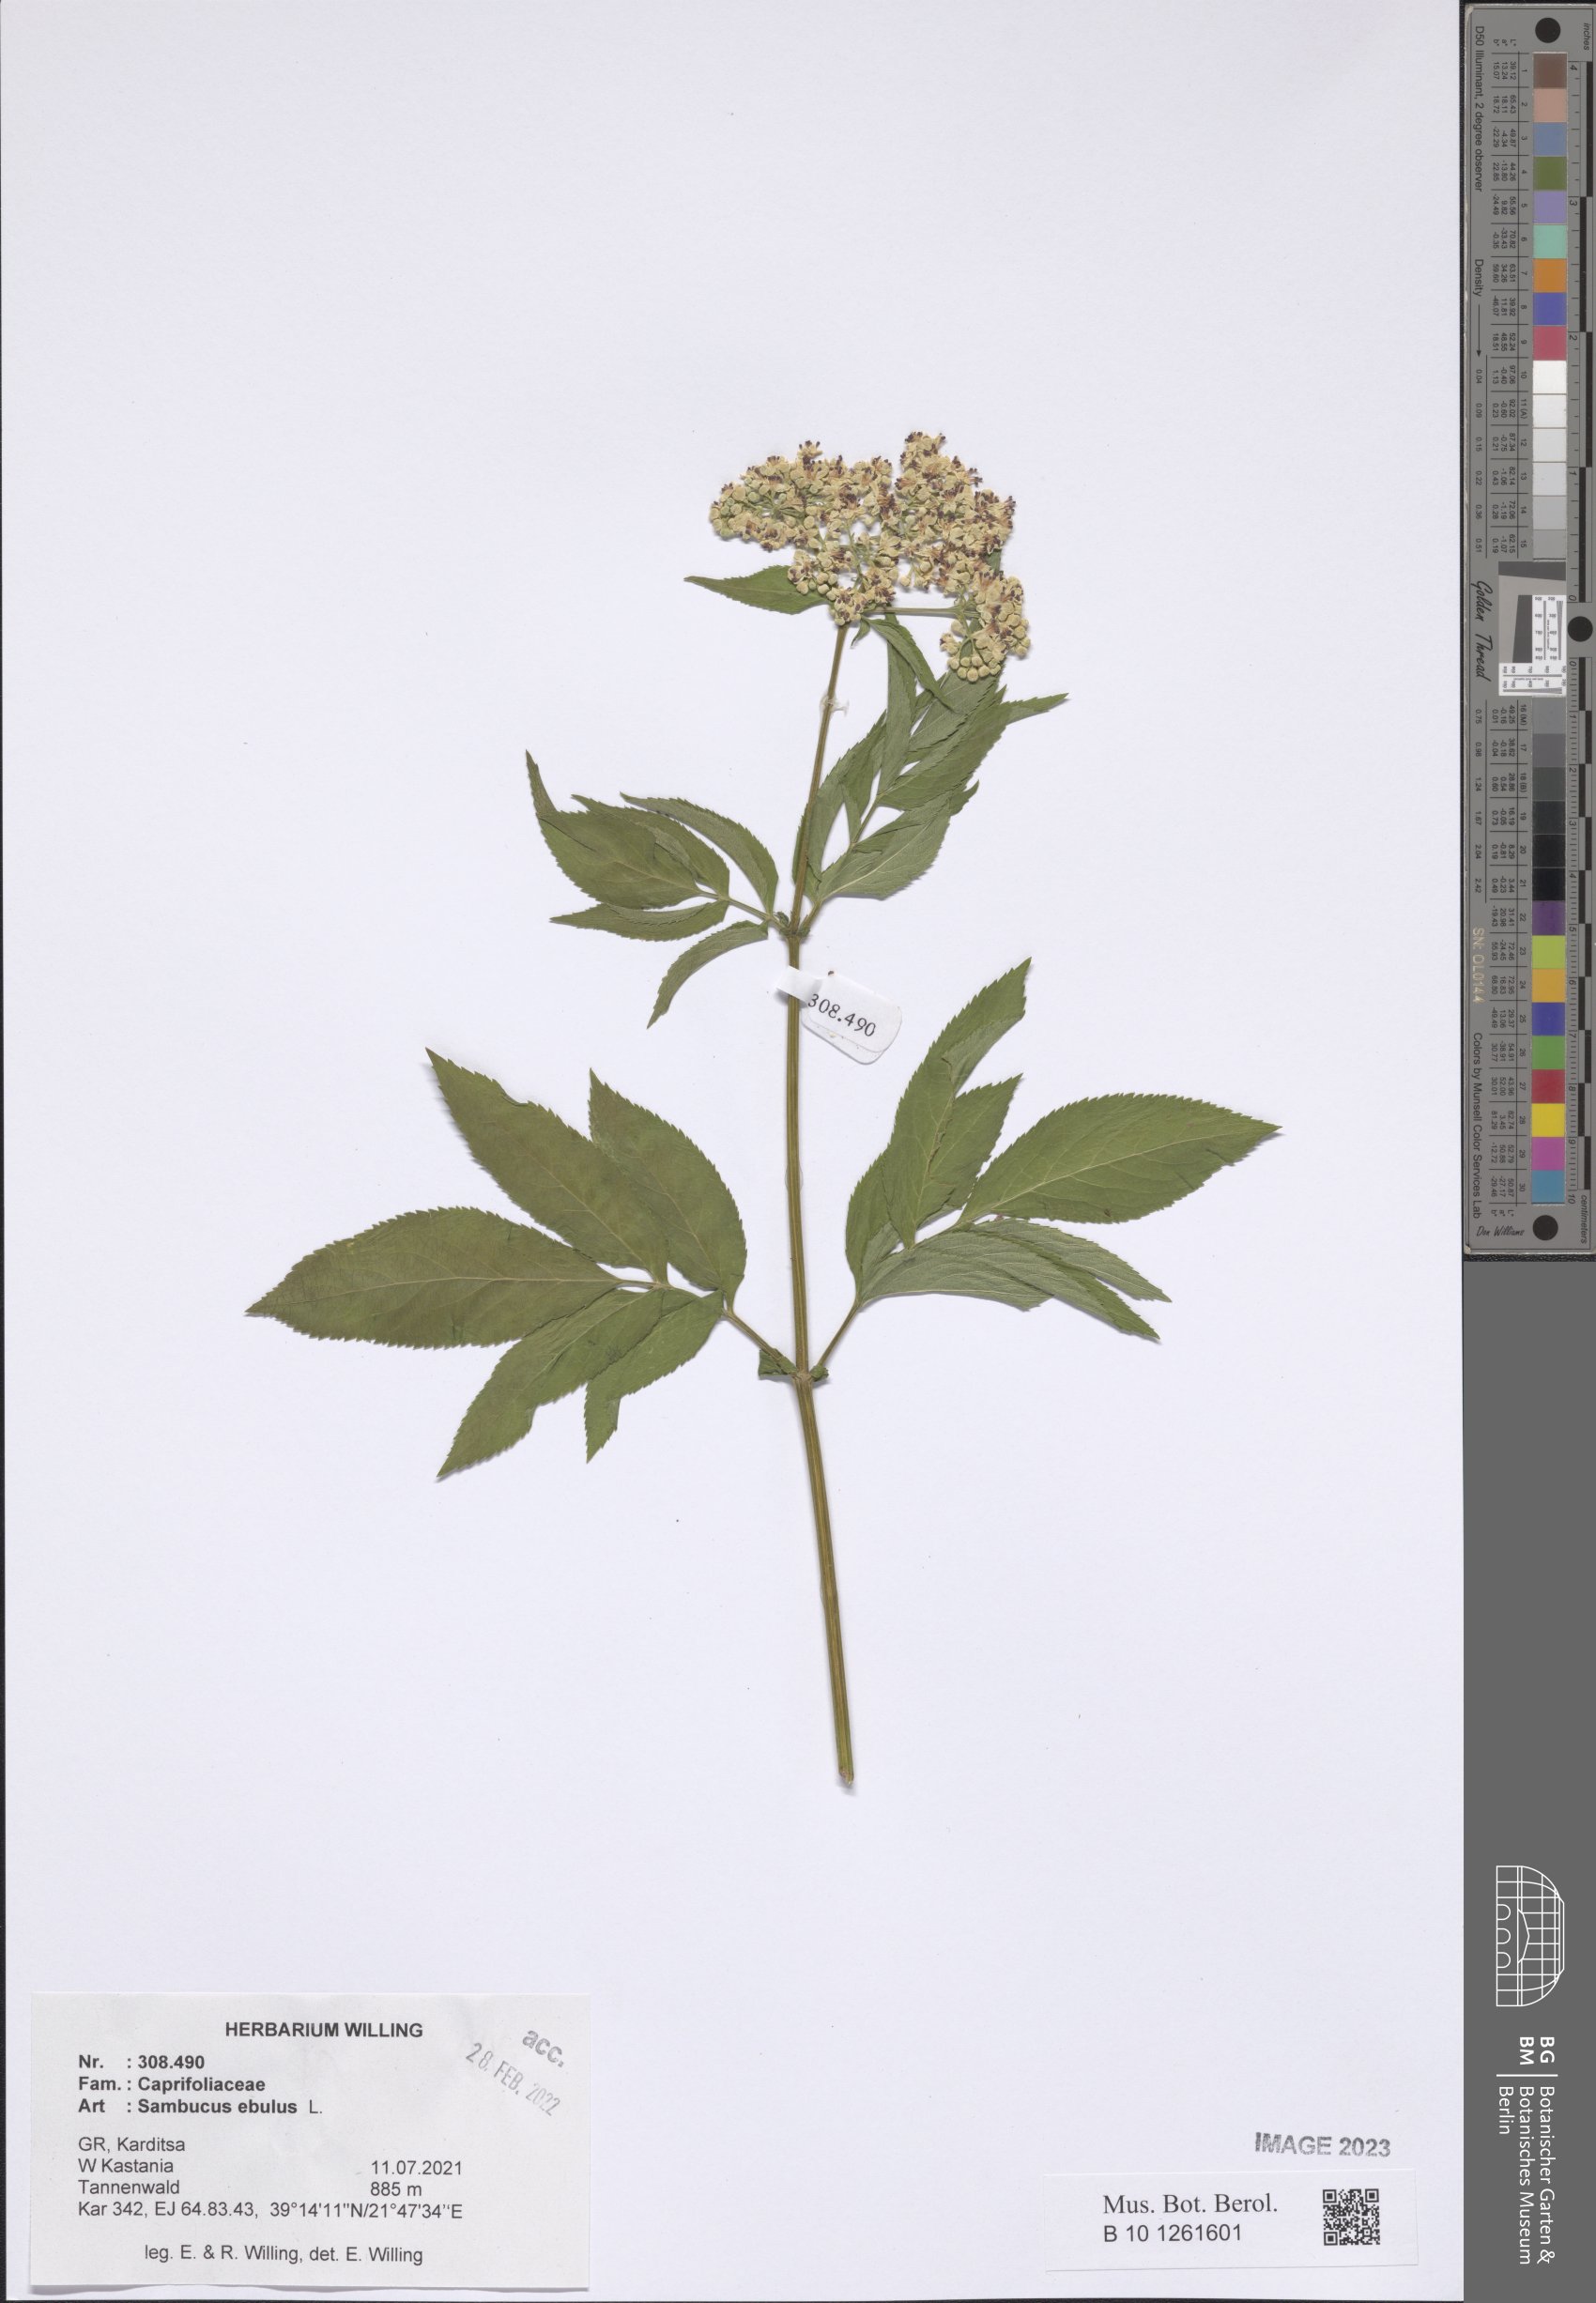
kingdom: Plantae
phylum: Tracheophyta
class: Magnoliopsida
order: Dipsacales
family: Viburnaceae
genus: Sambucus
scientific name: Sambucus ebulus
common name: Dwarf elder
